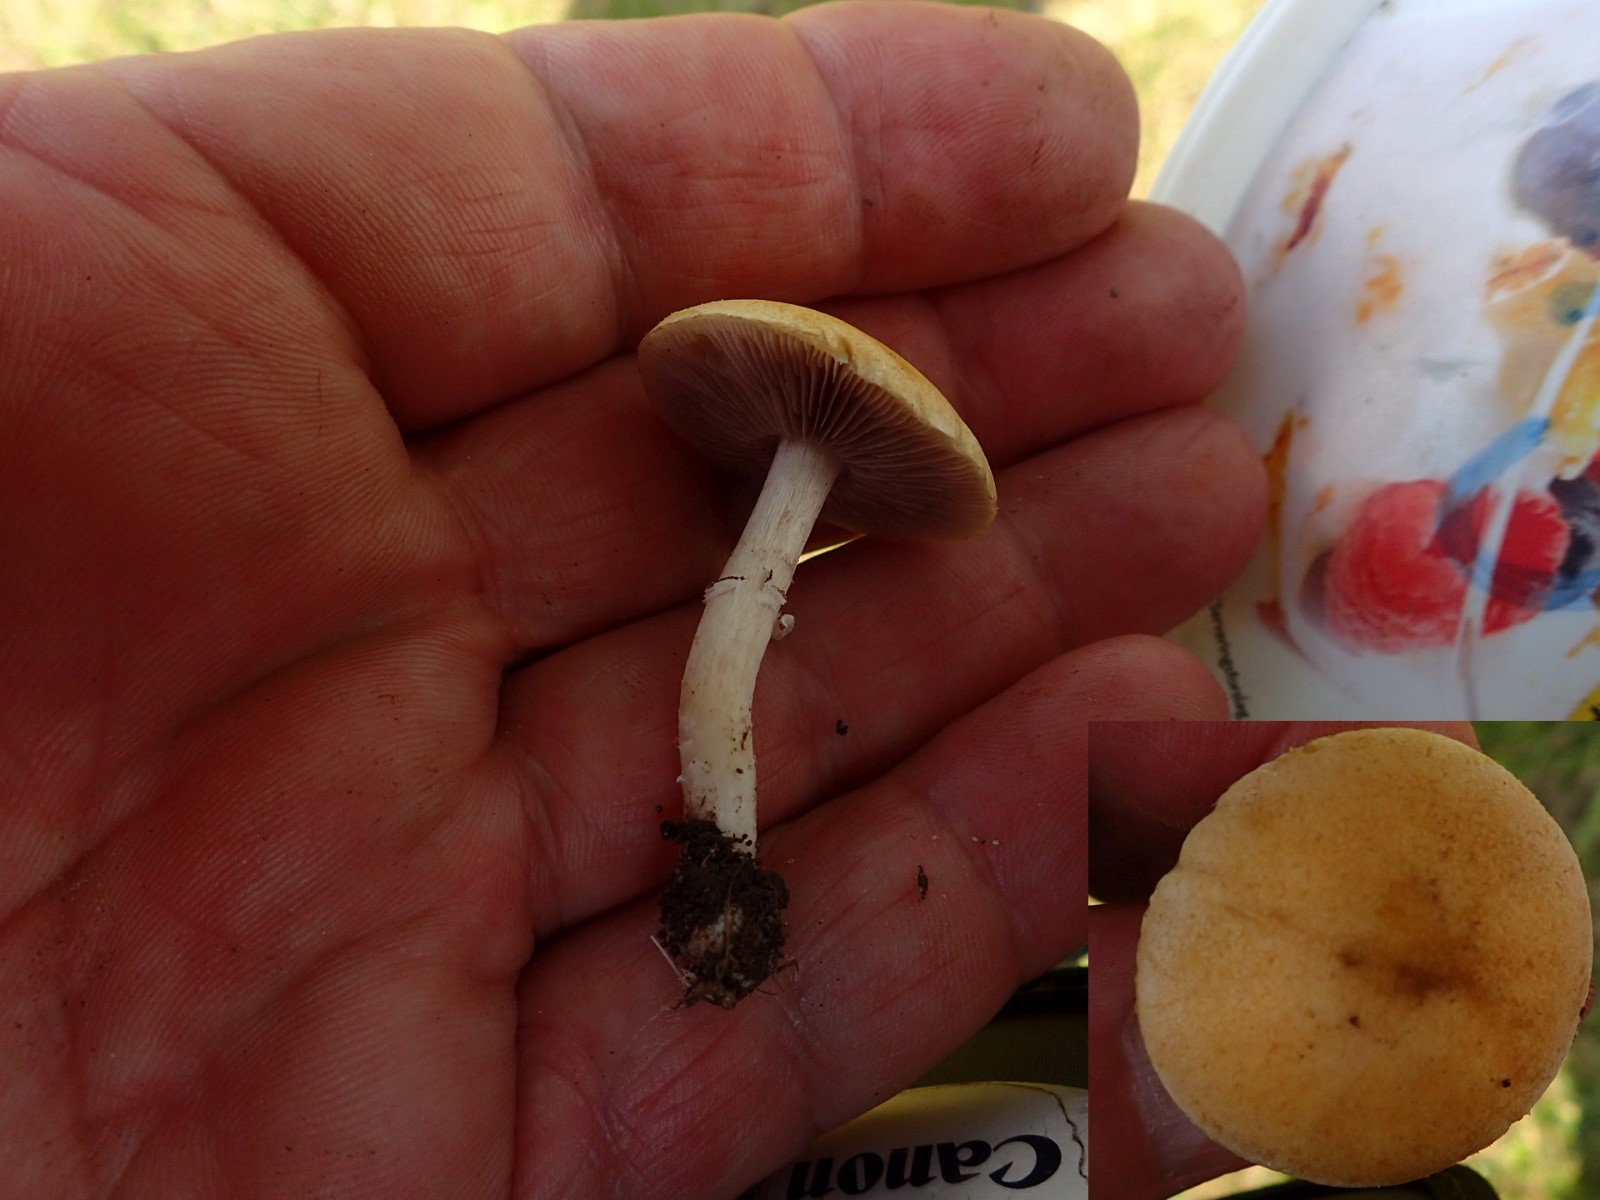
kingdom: Fungi
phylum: Basidiomycota
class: Agaricomycetes
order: Agaricales
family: Hymenogastraceae
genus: Psilocybe
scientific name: Psilocybe coronilla
